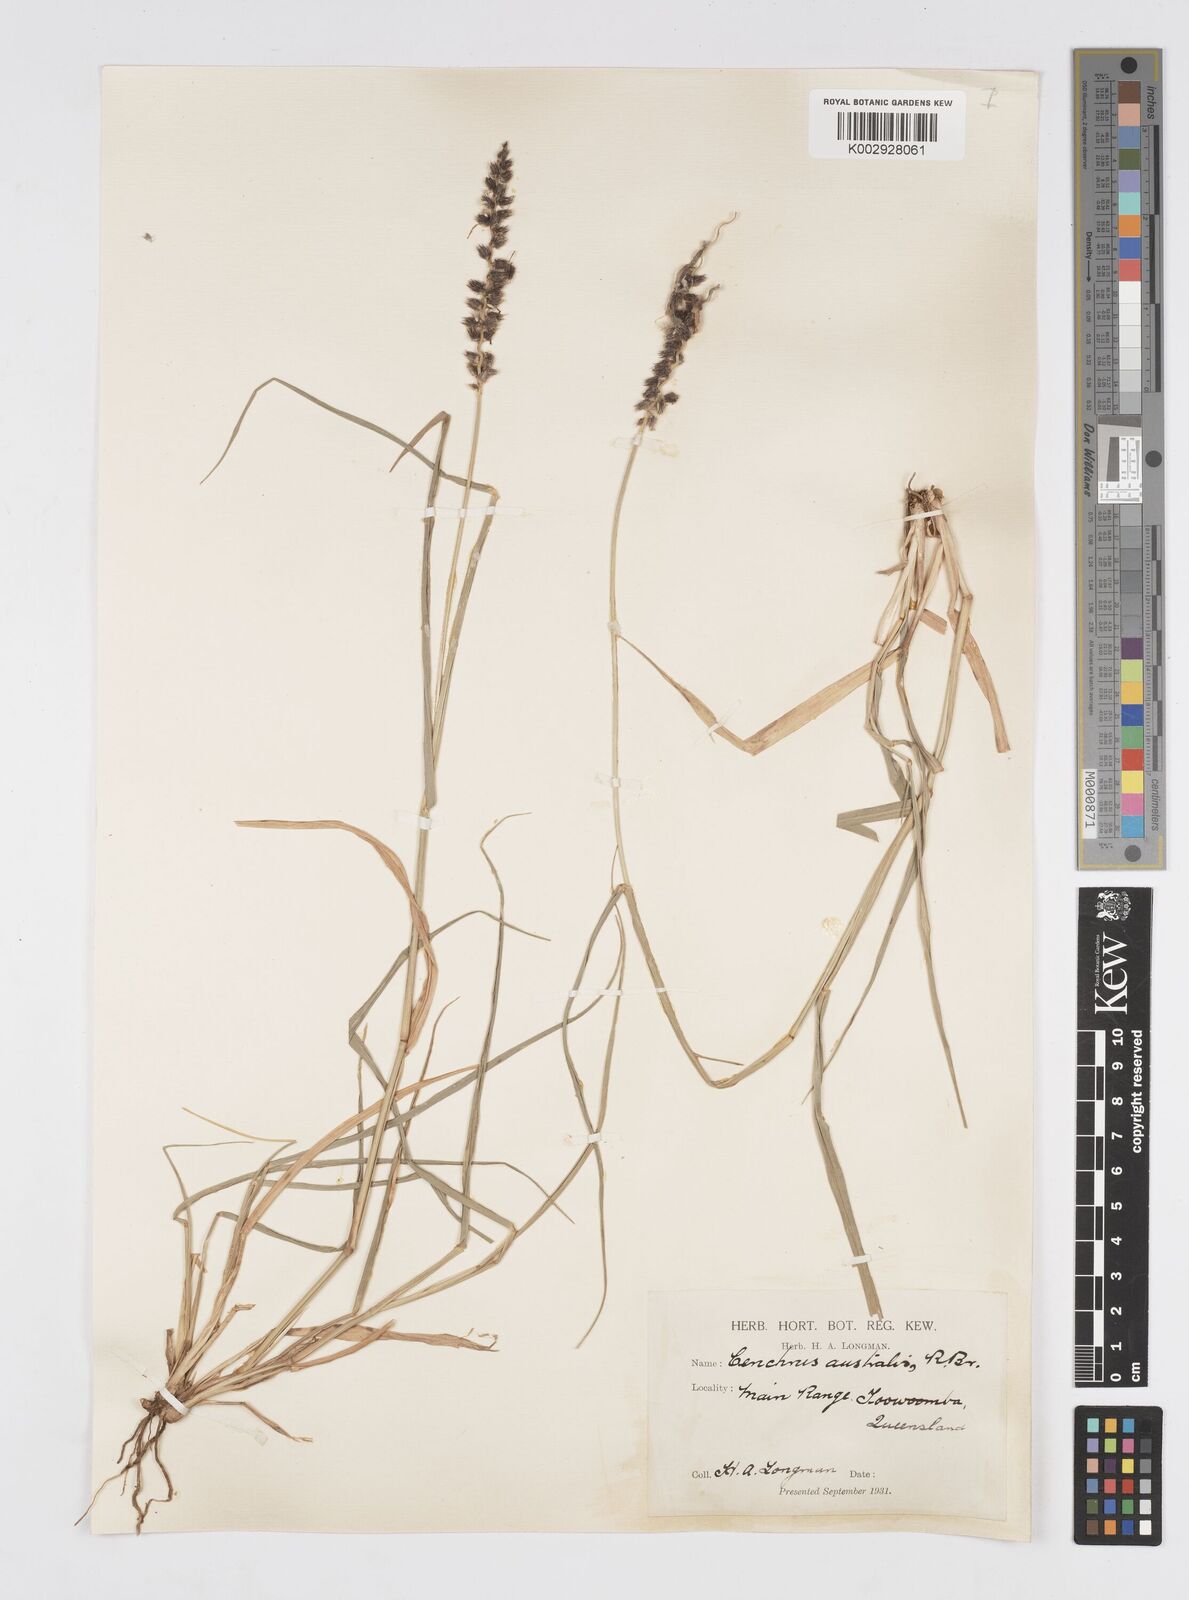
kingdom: Plantae
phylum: Tracheophyta
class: Liliopsida
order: Poales
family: Poaceae
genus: Cenchrus
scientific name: Cenchrus caliculatus
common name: Large bur grass
